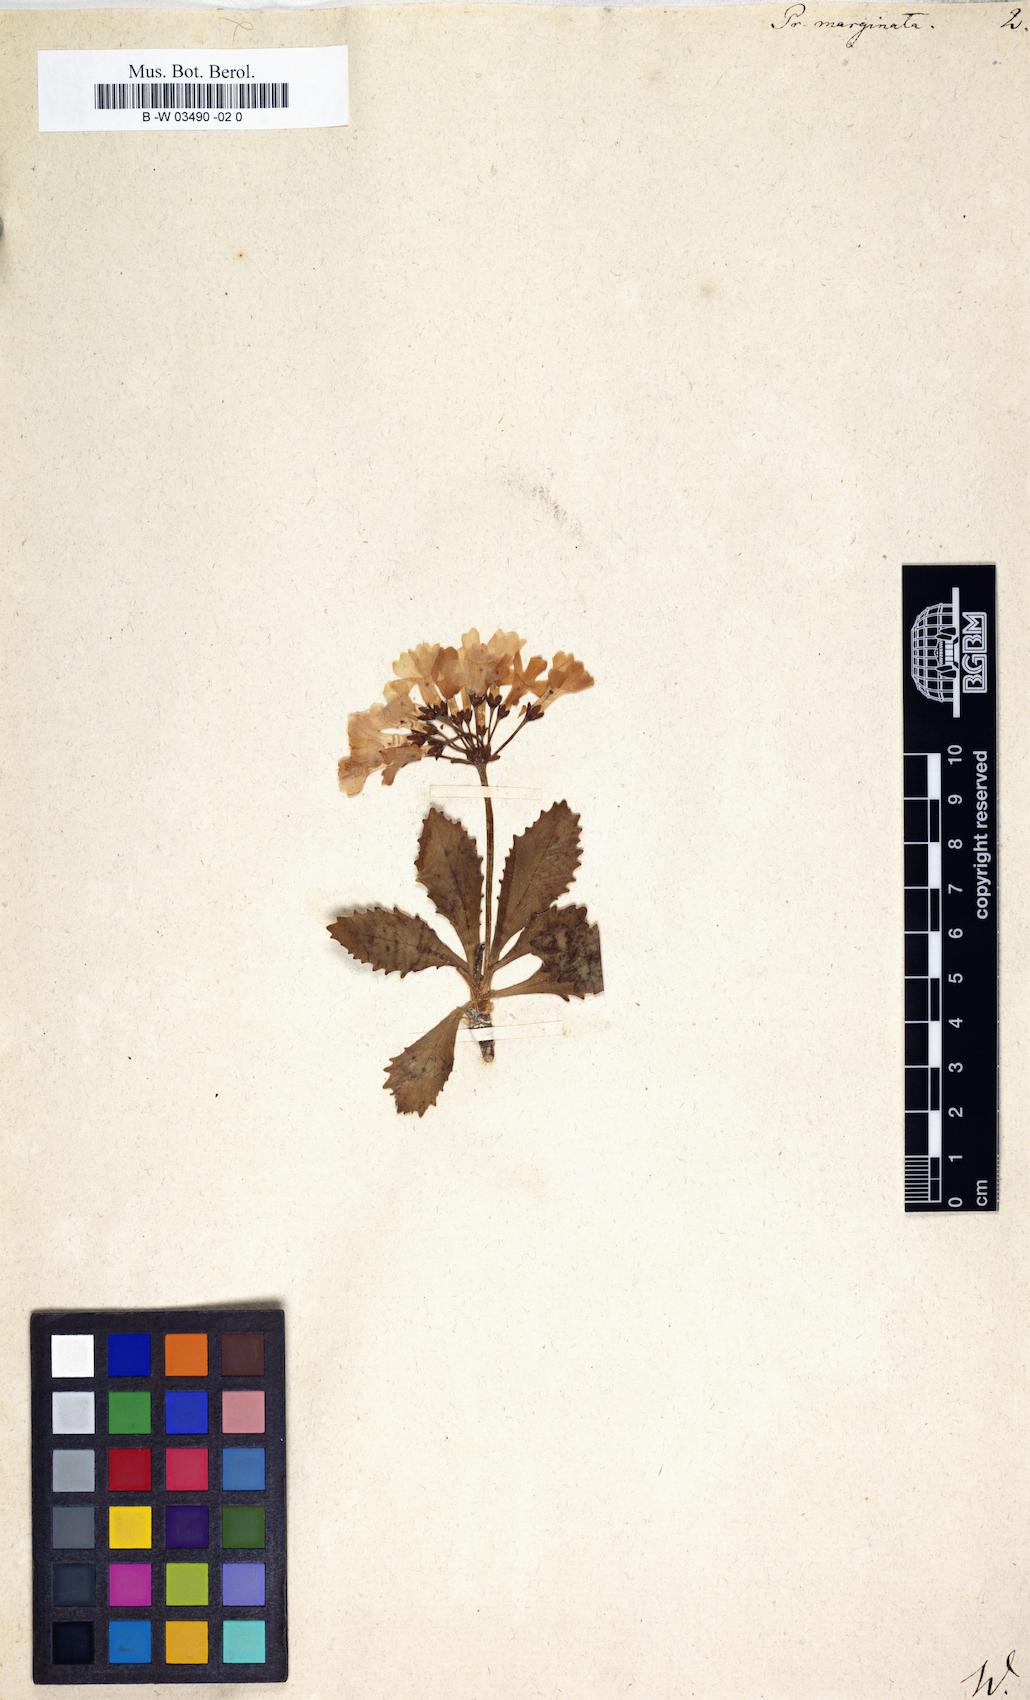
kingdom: Plantae
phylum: Tracheophyta
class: Magnoliopsida
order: Ericales
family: Primulaceae
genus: Primula
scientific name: Primula marginata
